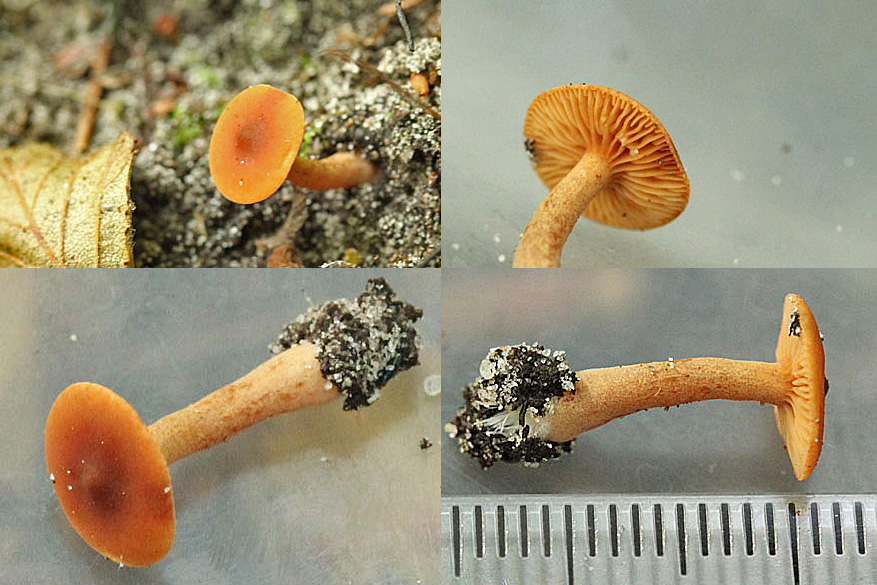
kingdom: Fungi
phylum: Basidiomycota
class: Agaricomycetes
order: Russulales
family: Russulaceae
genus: Lactarius
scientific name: Lactarius obscuratus
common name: elle-mælkehat
